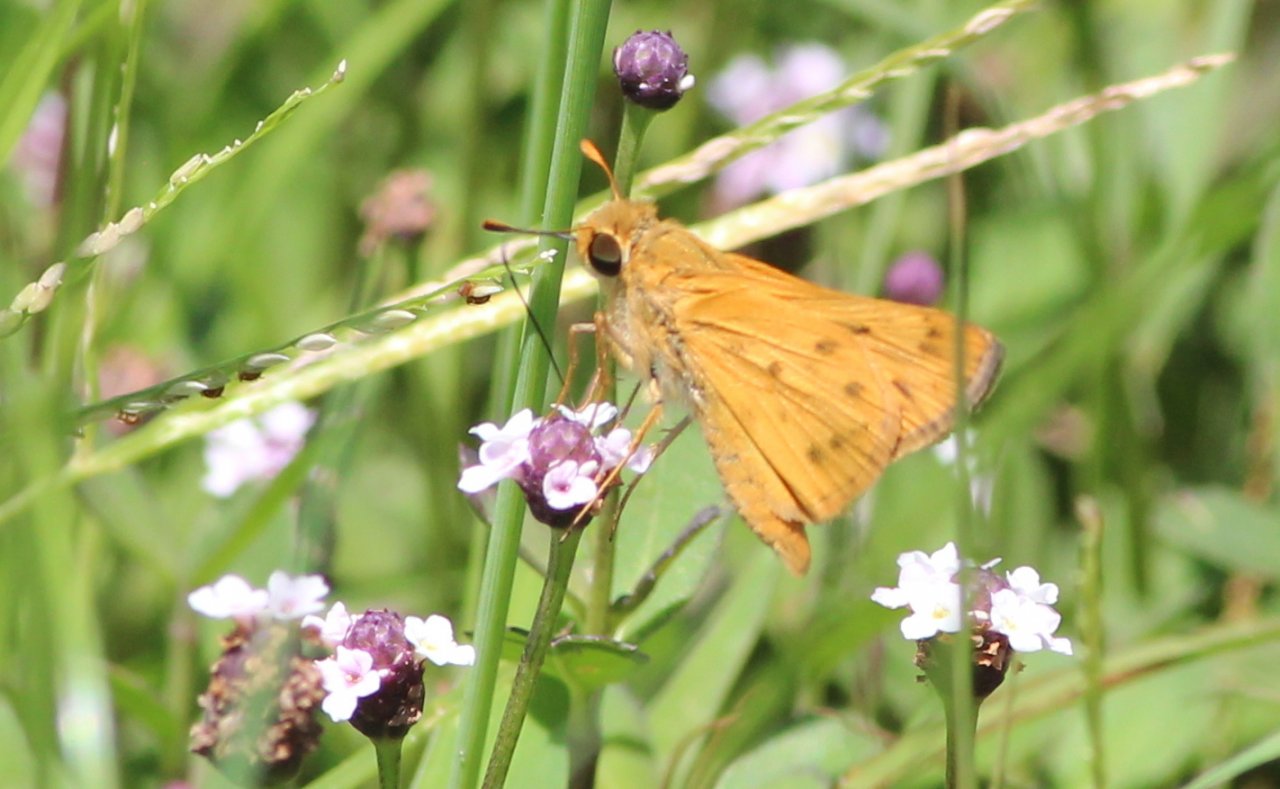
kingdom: Animalia
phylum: Arthropoda
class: Insecta
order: Lepidoptera
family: Hesperiidae
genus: Hylephila
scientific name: Hylephila phyleus
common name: Fiery Skipper
